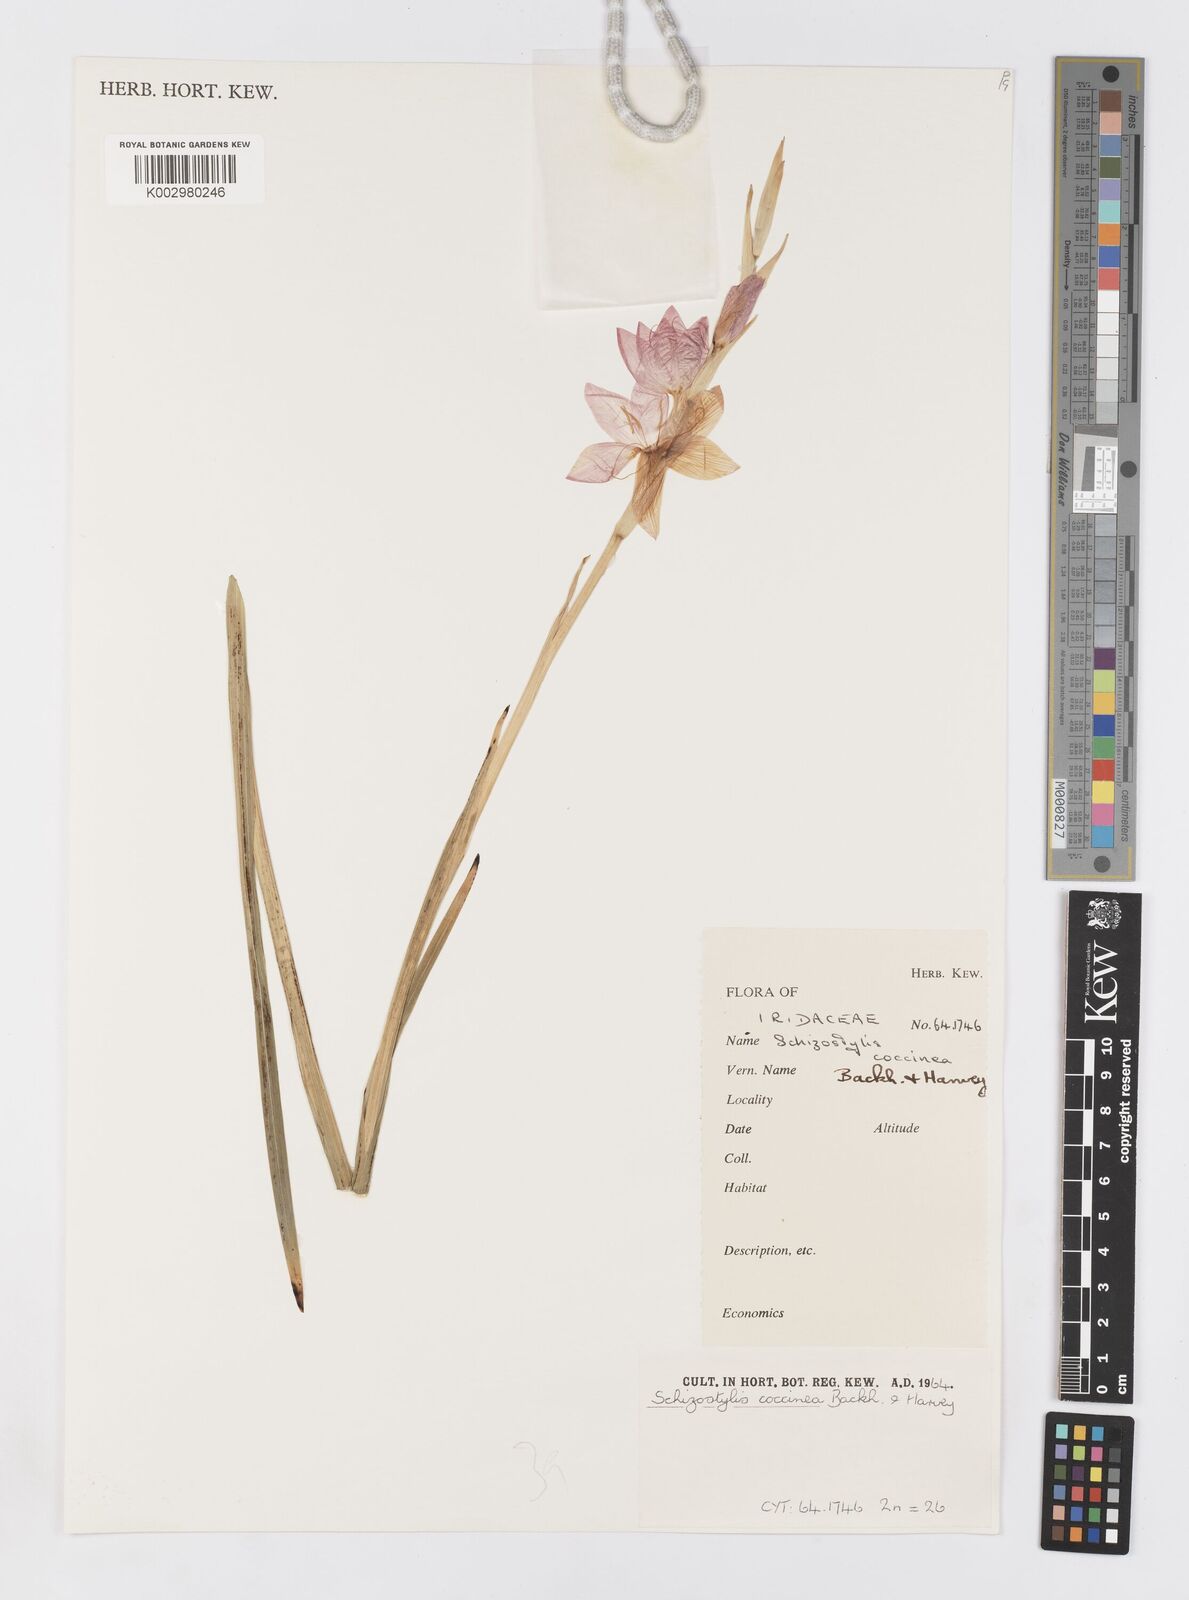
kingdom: Plantae
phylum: Tracheophyta
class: Liliopsida
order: Asparagales
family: Iridaceae
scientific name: Iridaceae
